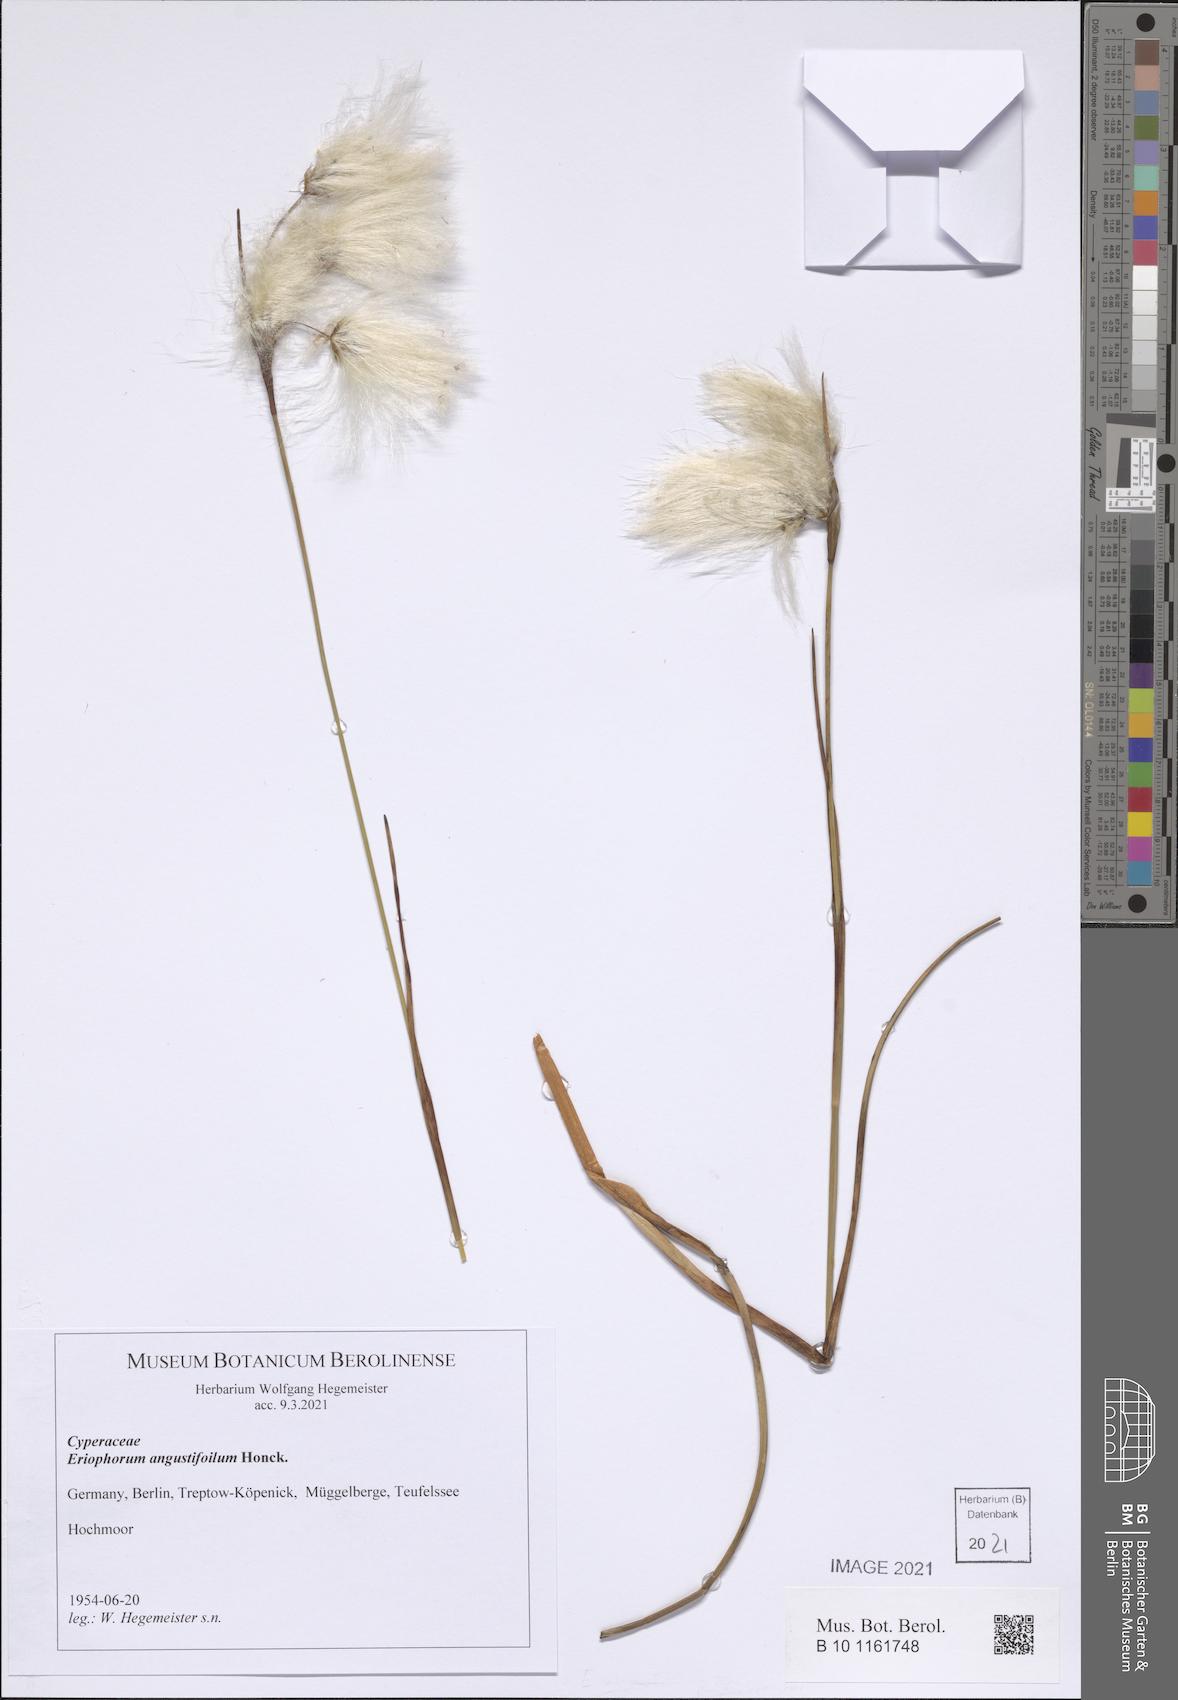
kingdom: Plantae
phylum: Tracheophyta
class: Liliopsida
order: Poales
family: Cyperaceae
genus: Eriophorum
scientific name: Eriophorum angustifolium
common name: Common cottongrass
